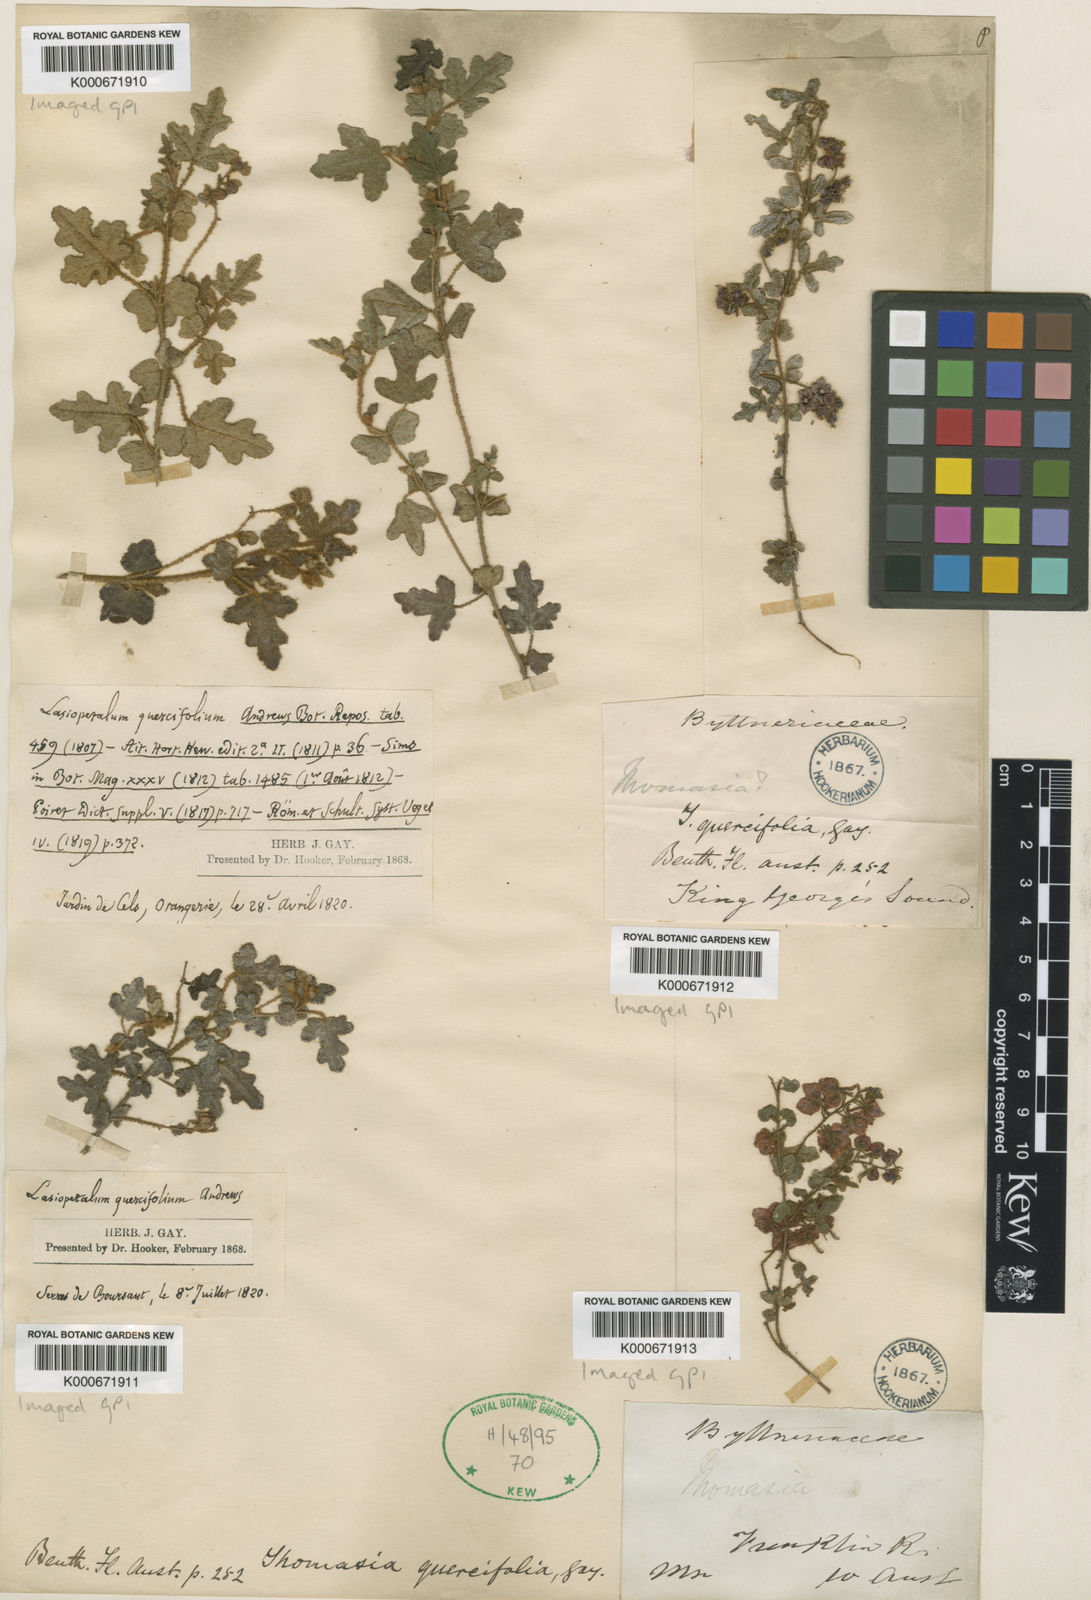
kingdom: Plantae
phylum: Tracheophyta
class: Magnoliopsida
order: Malvales
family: Malvaceae
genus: Thomasia
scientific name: Thomasia quercifolia
